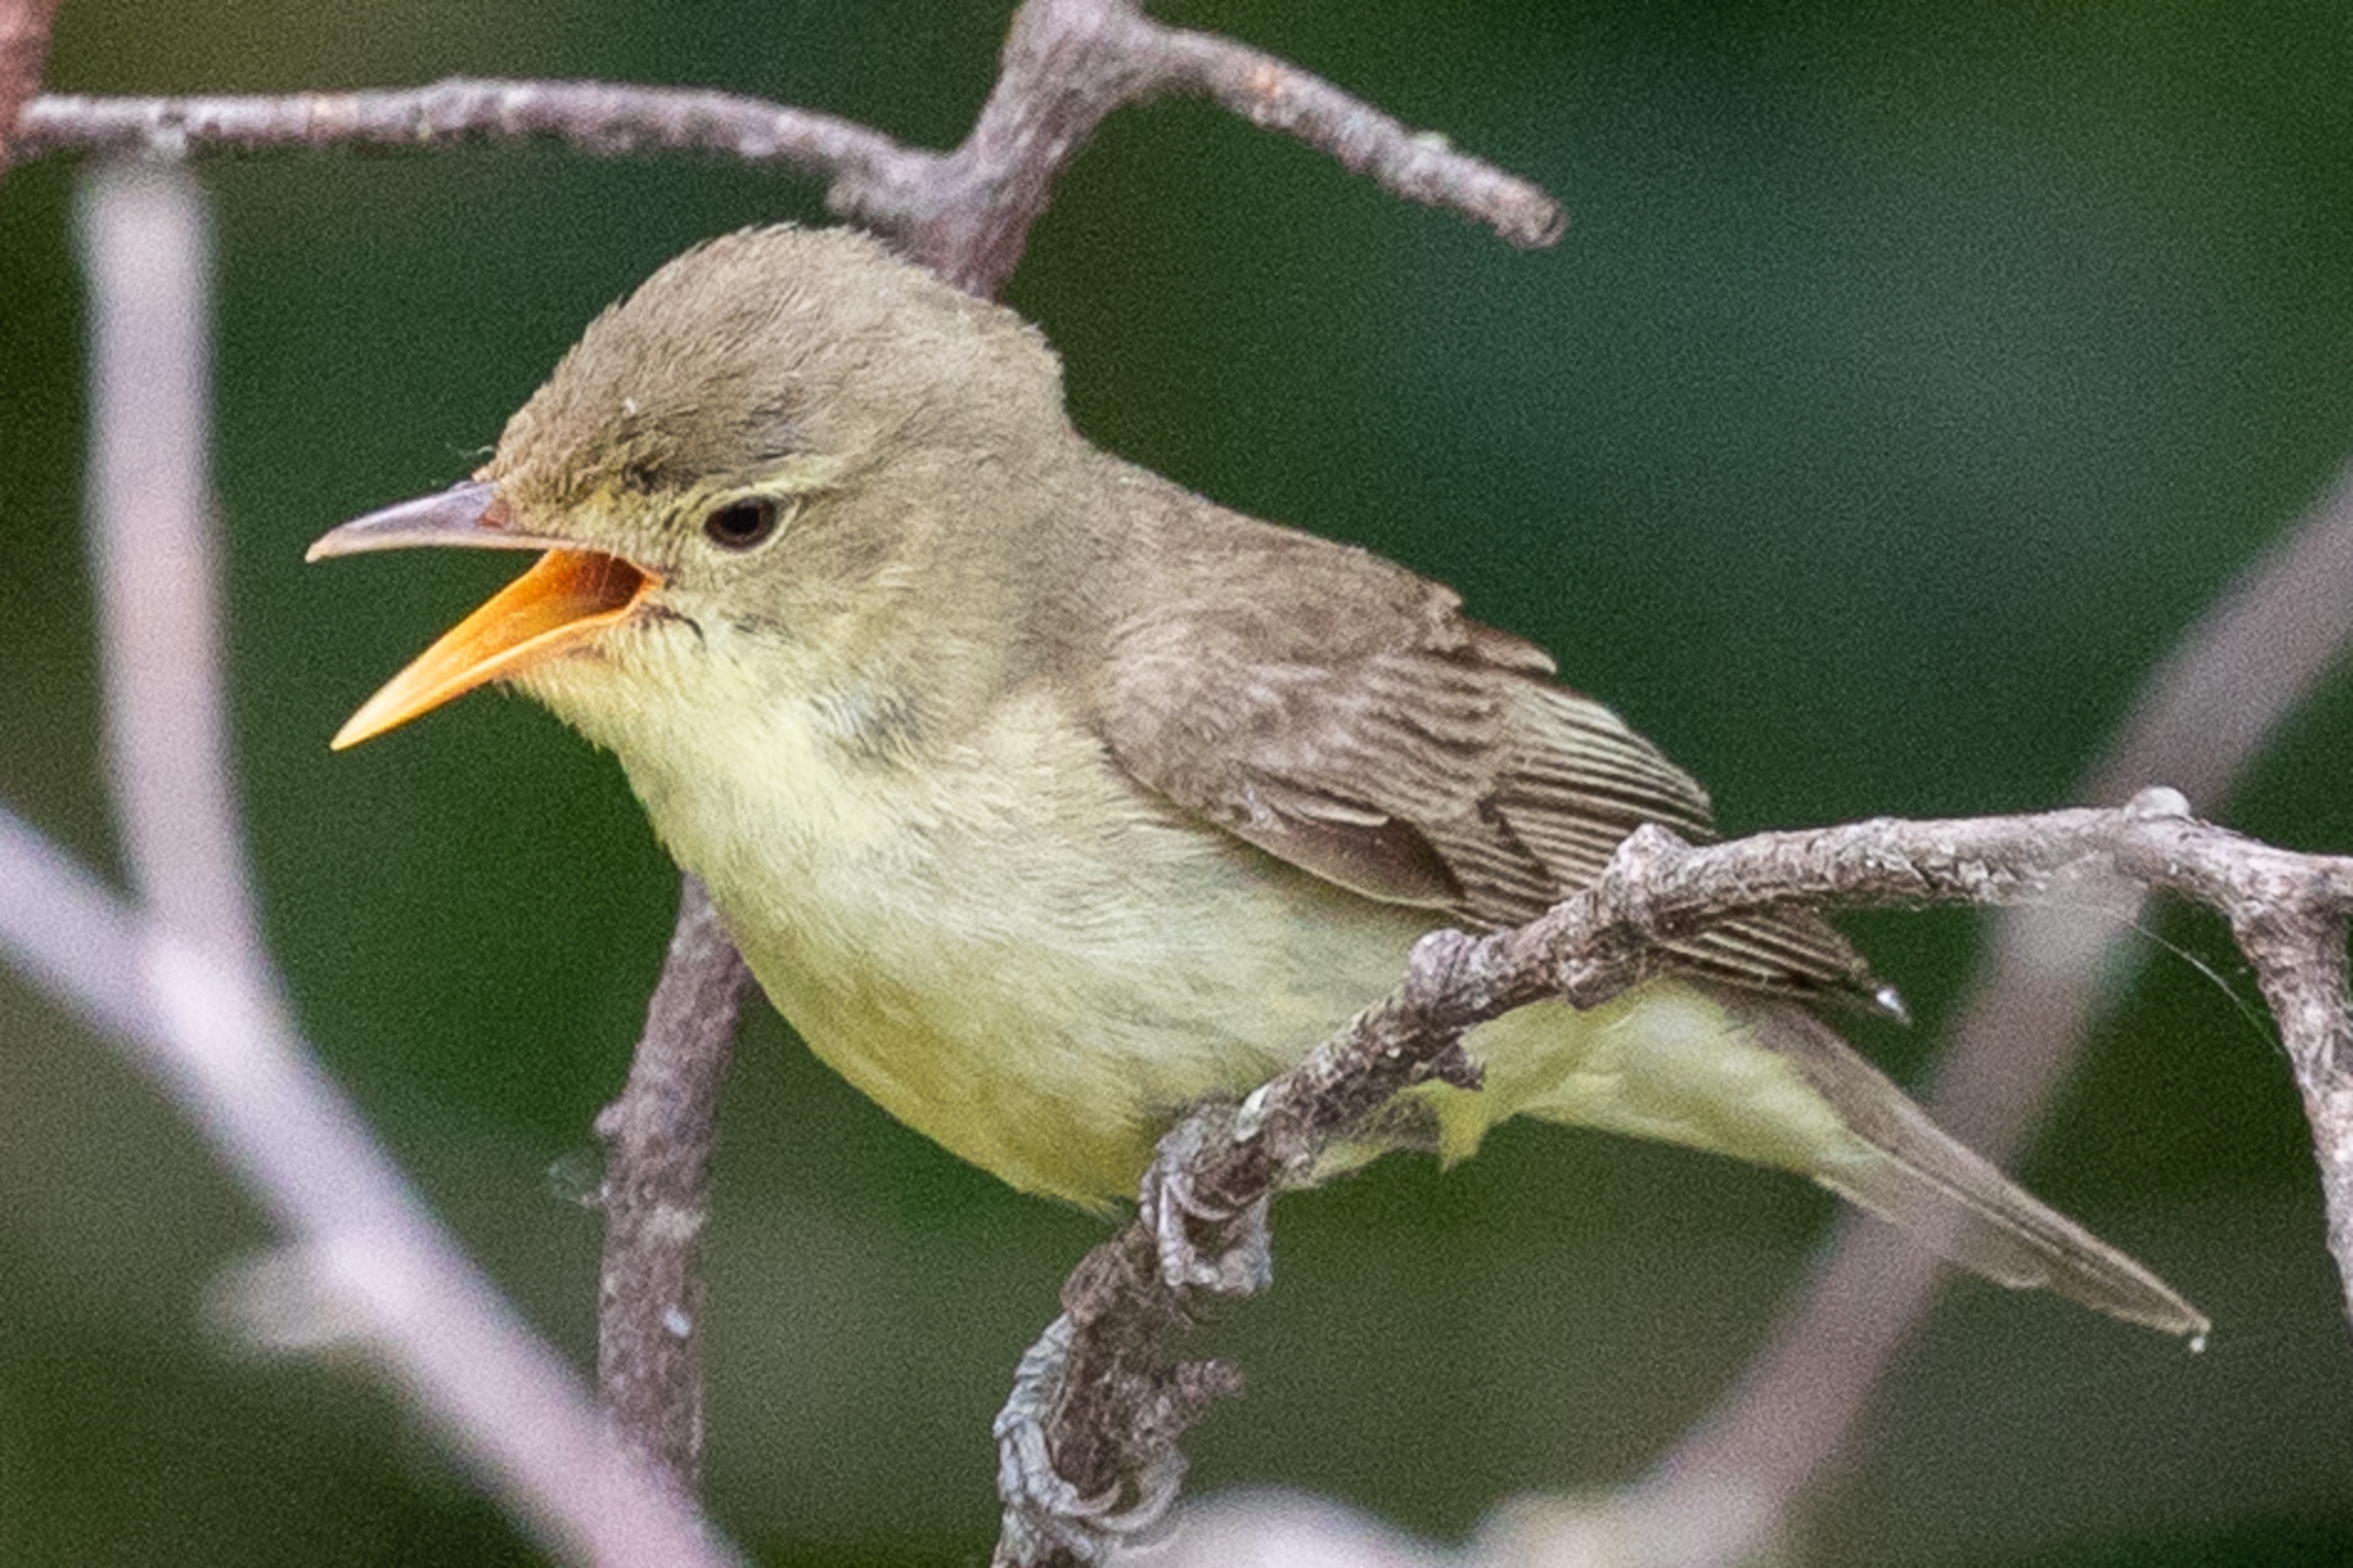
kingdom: Animalia
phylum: Chordata
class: Aves
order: Passeriformes
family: Acrocephalidae
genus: Hippolais
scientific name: Hippolais icterina
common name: Gulbug
